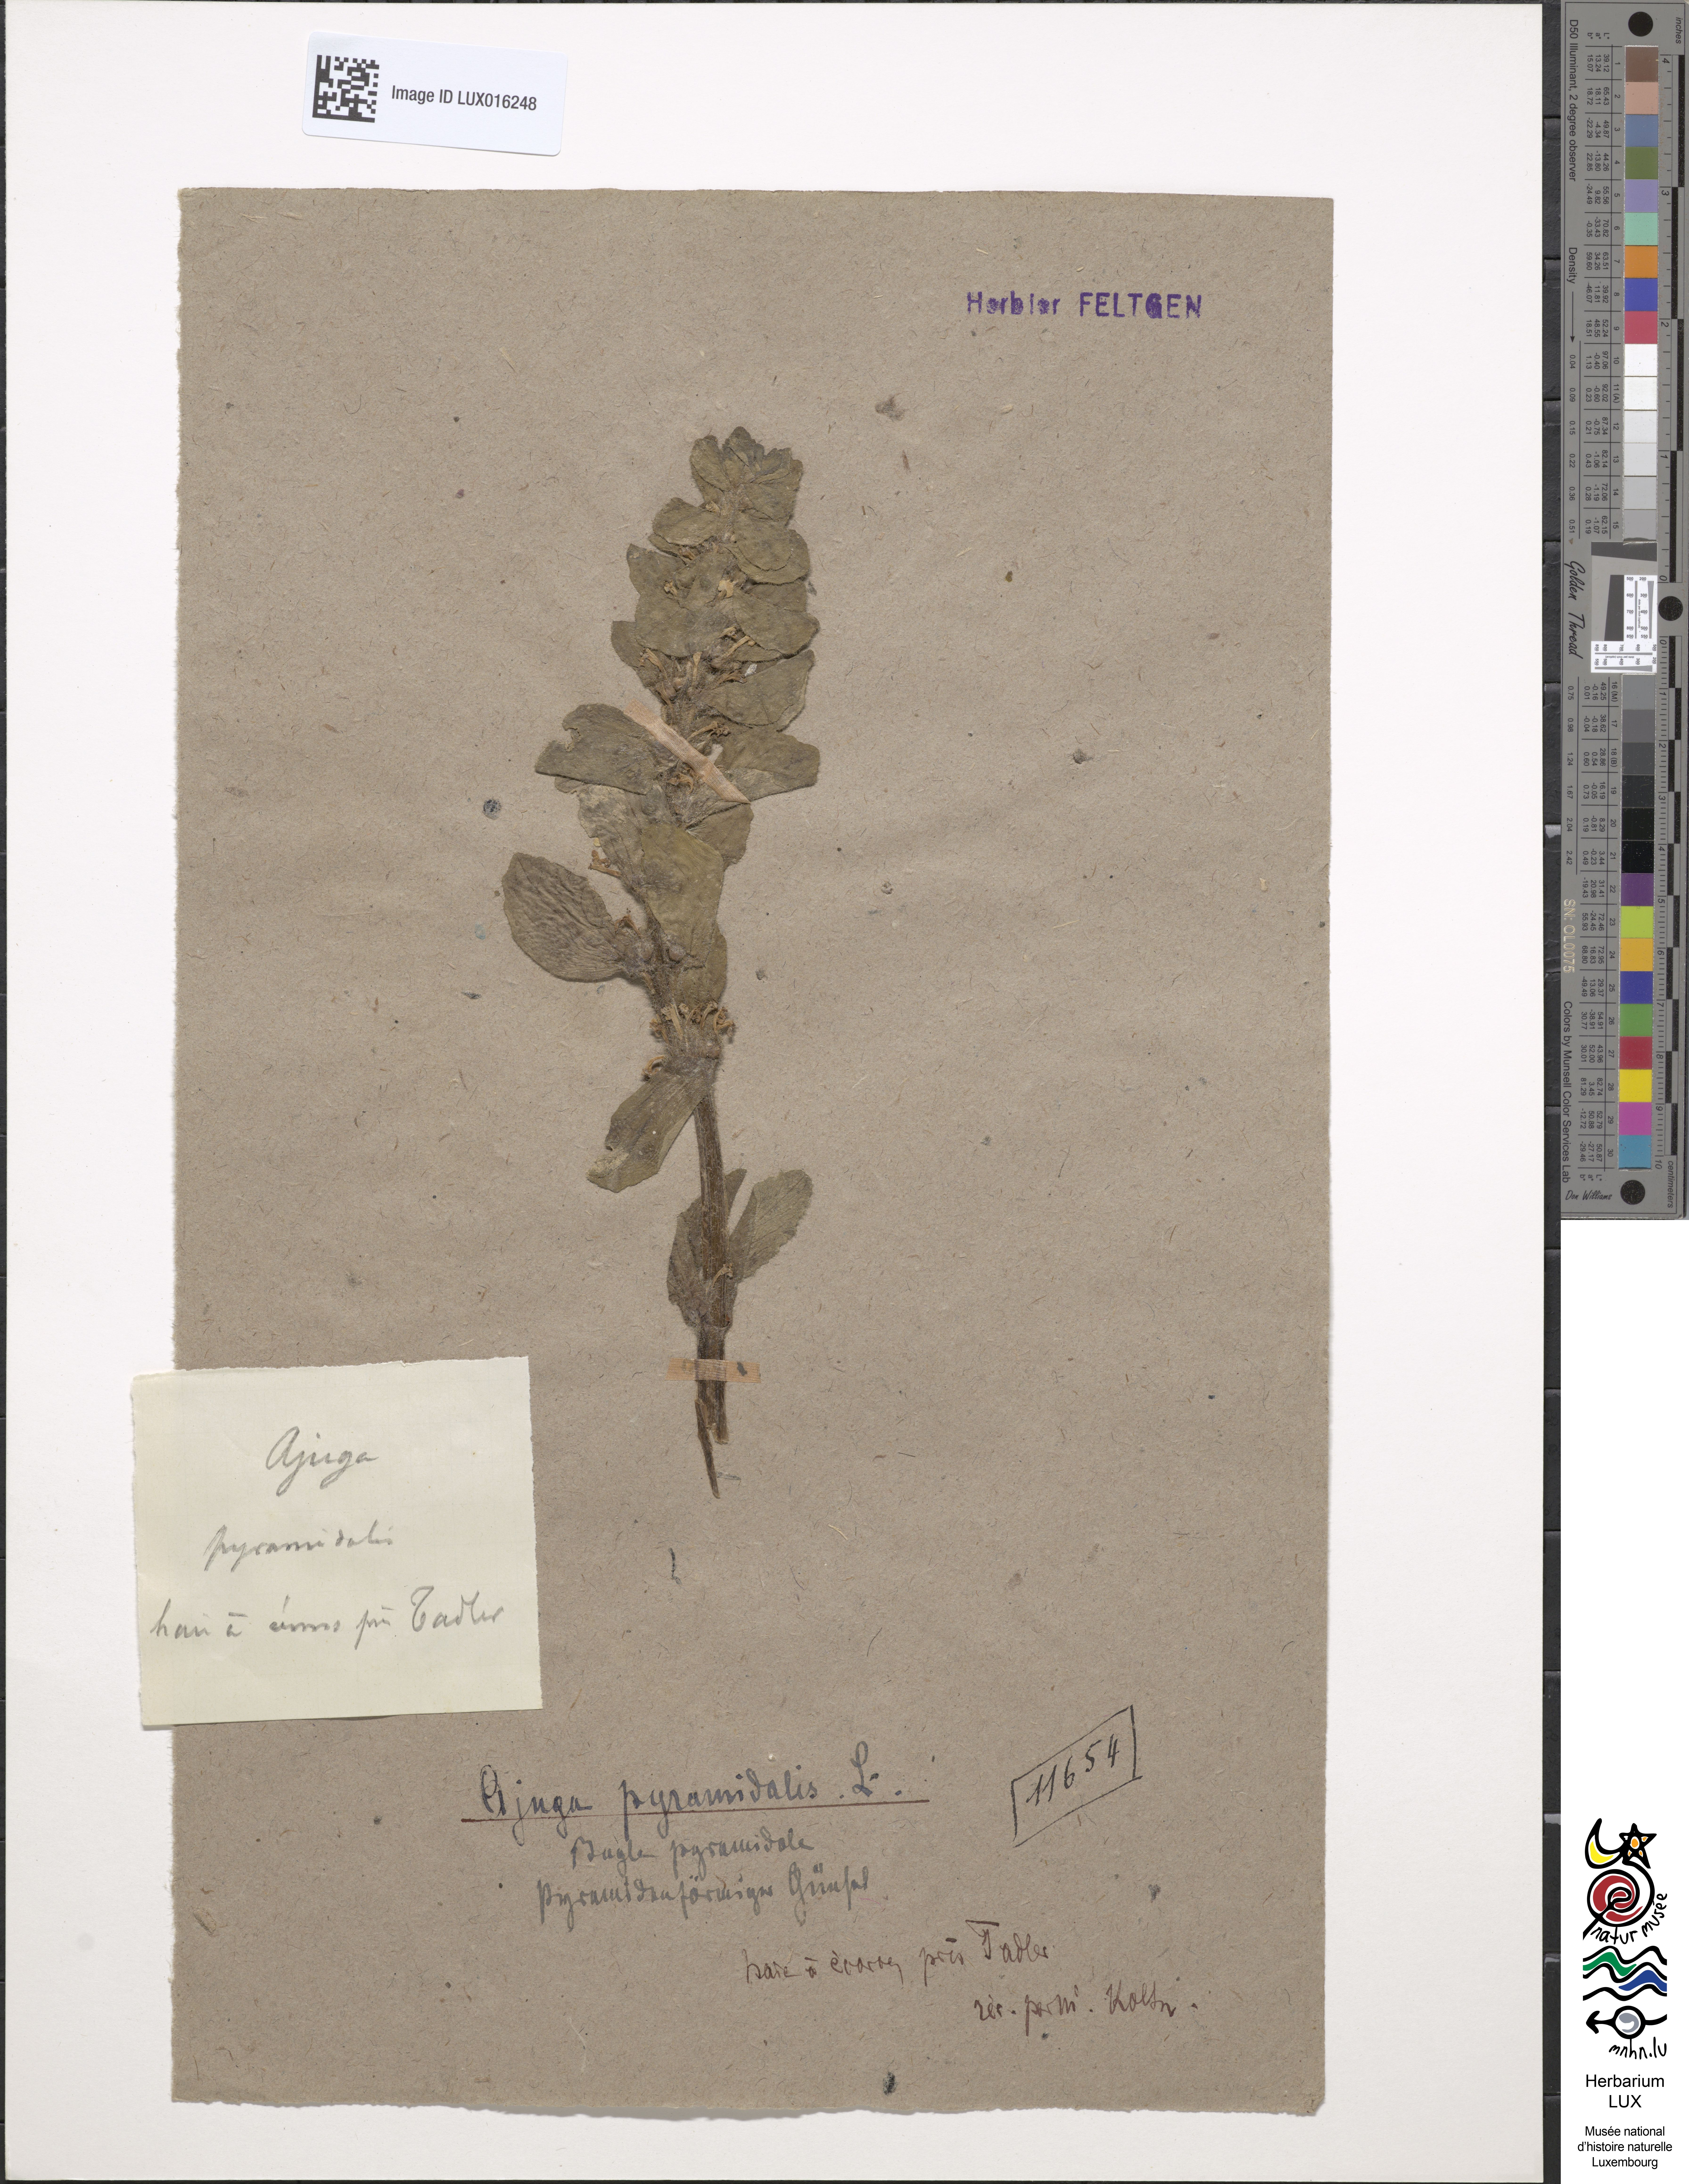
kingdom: Plantae
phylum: Tracheophyta
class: Magnoliopsida
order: Lamiales
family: Lamiaceae
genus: Ajuga
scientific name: Ajuga pyramidalis
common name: Pyramid bugle
